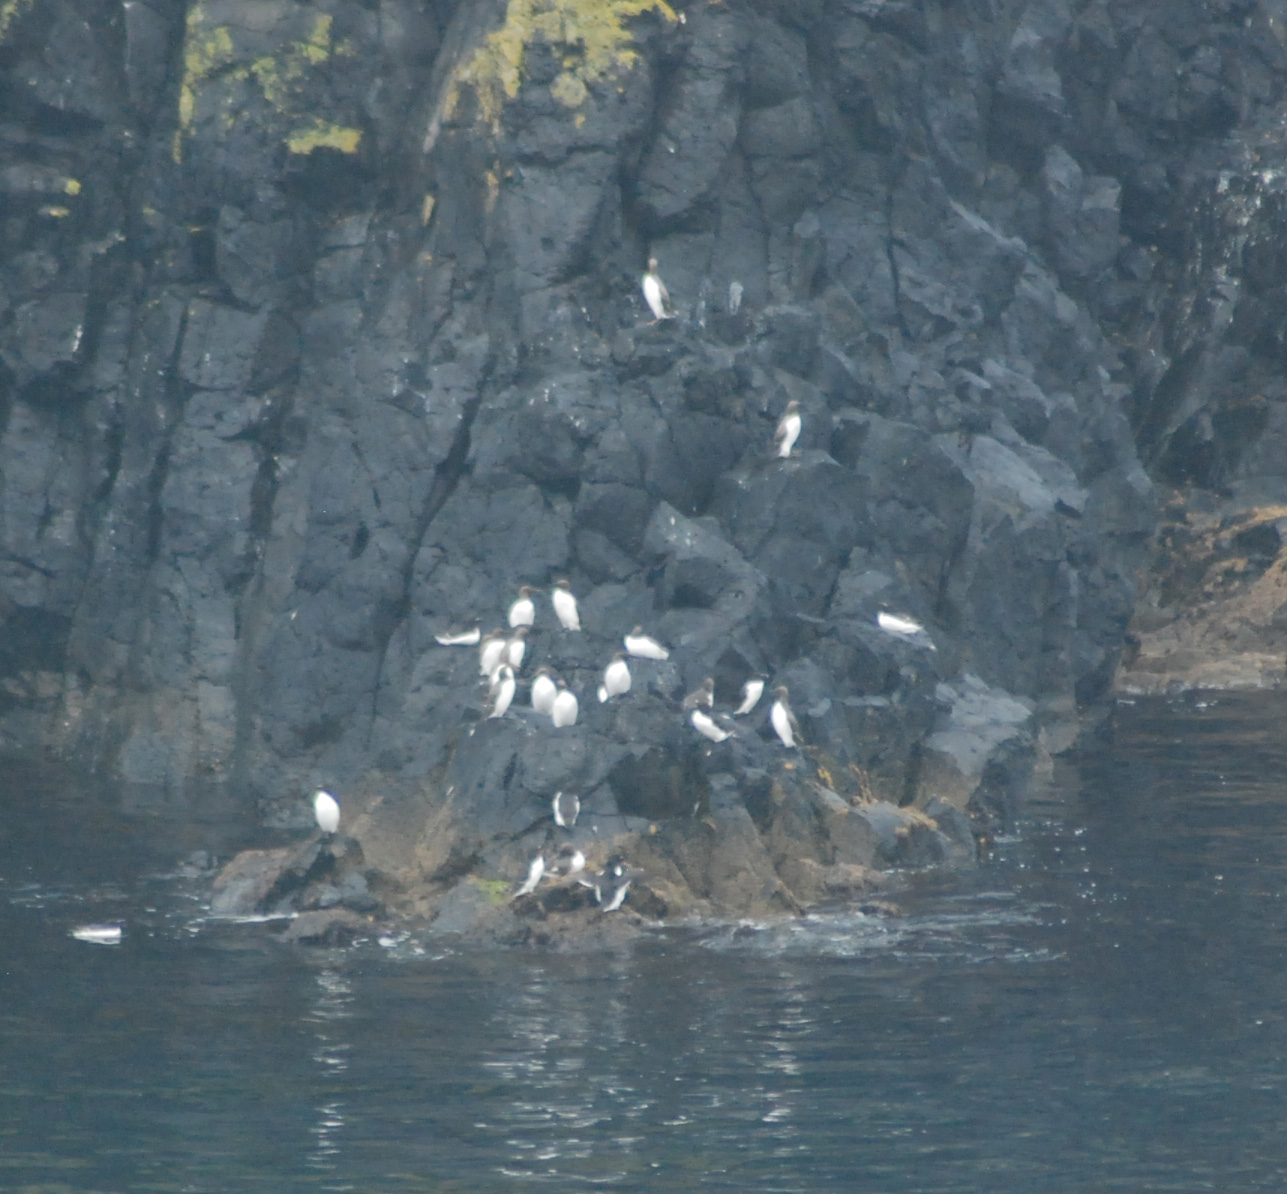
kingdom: Animalia
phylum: Chordata
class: Aves
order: Charadriiformes
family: Alcidae
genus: Uria
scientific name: Uria aalge
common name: Common murre
